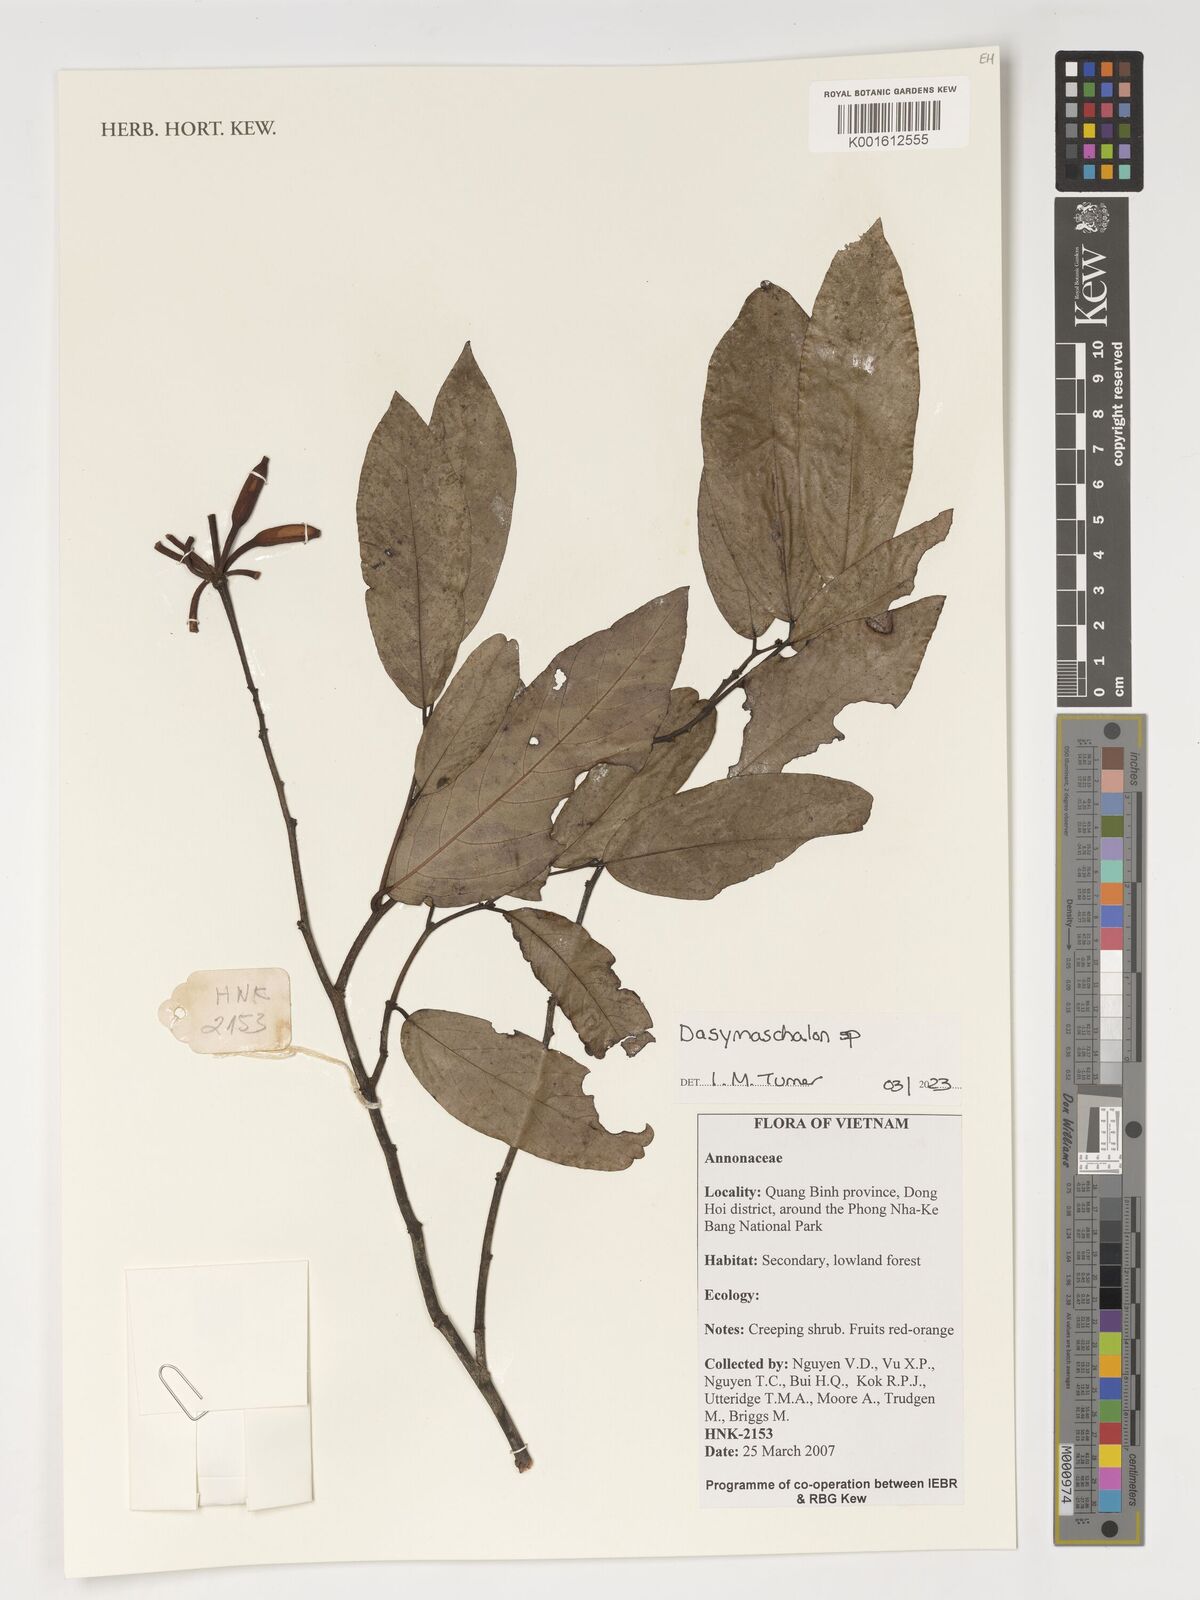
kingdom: Plantae
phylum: Tracheophyta
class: Magnoliopsida
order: Magnoliales
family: Annonaceae
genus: Dasymaschalon
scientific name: Dasymaschalon
